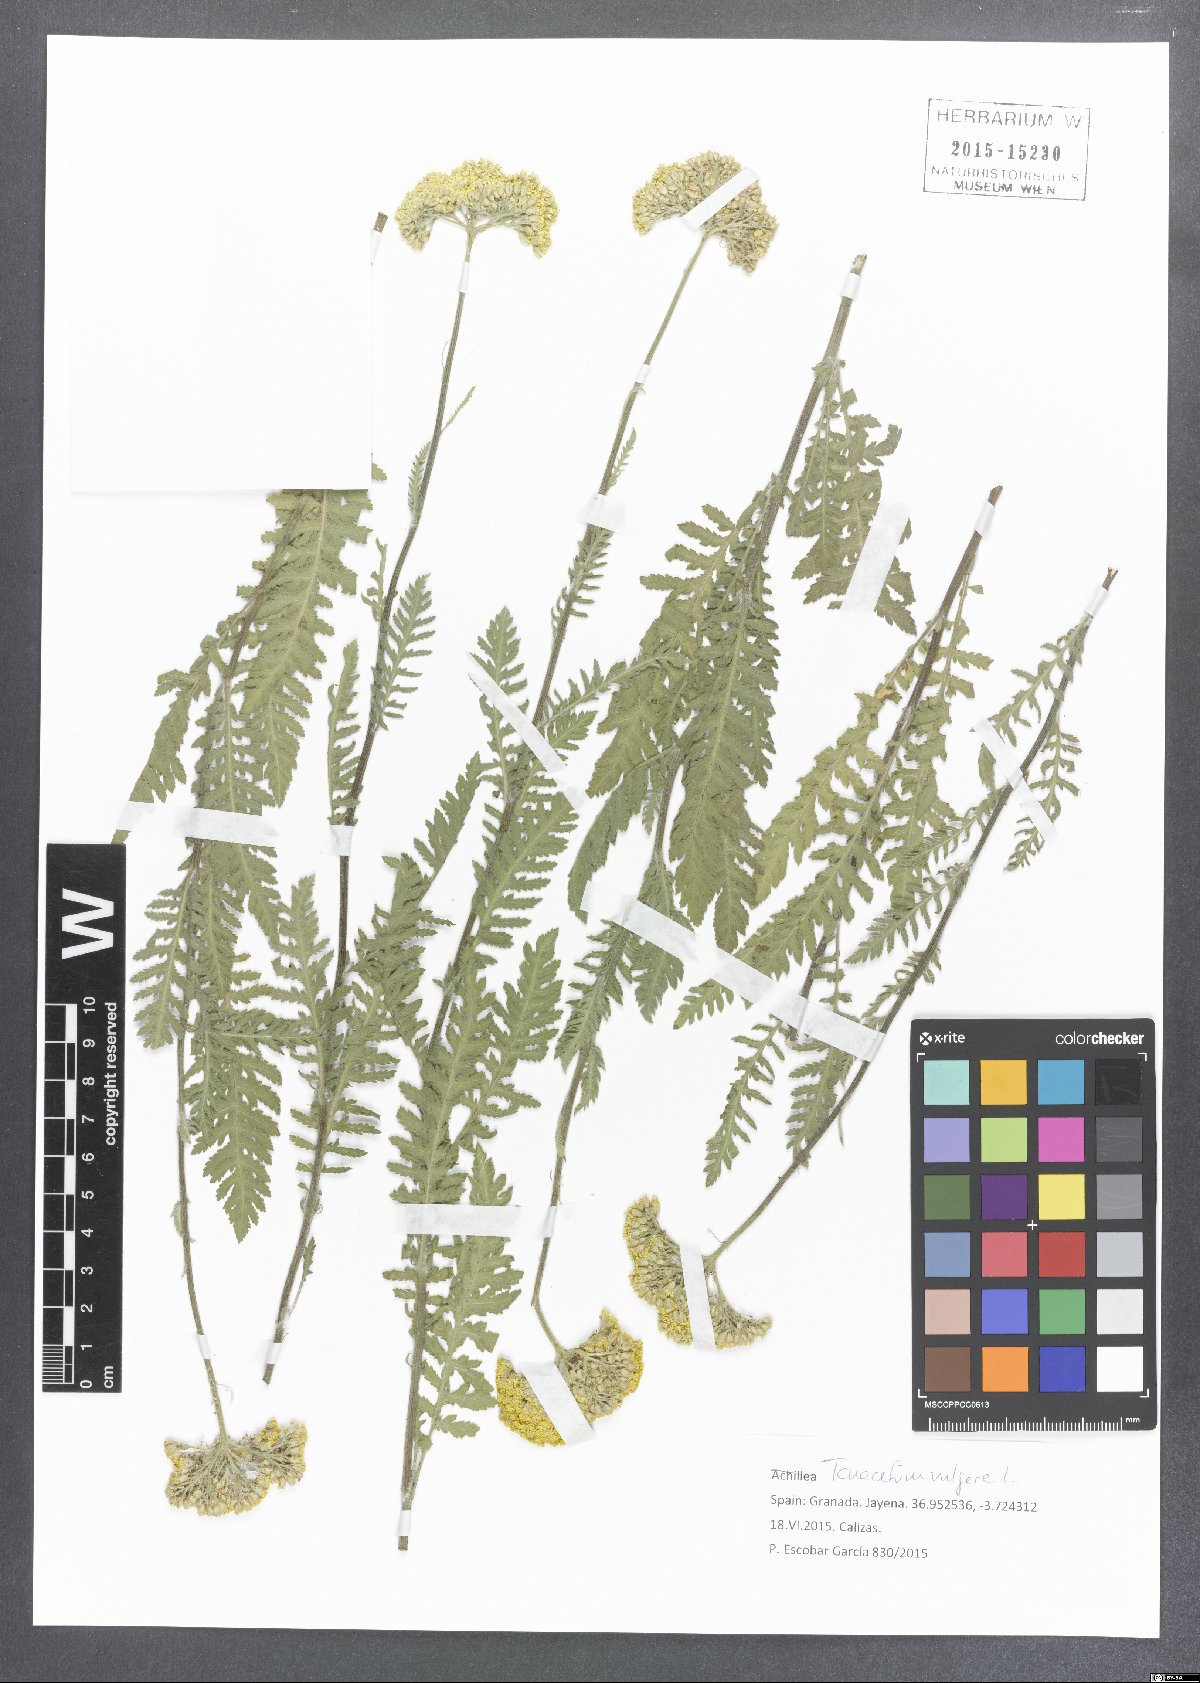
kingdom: Plantae
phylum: Tracheophyta
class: Magnoliopsida
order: Asterales
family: Asteraceae
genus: Achillea
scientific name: Achillea filipendulina
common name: Fernleaf yarrow
